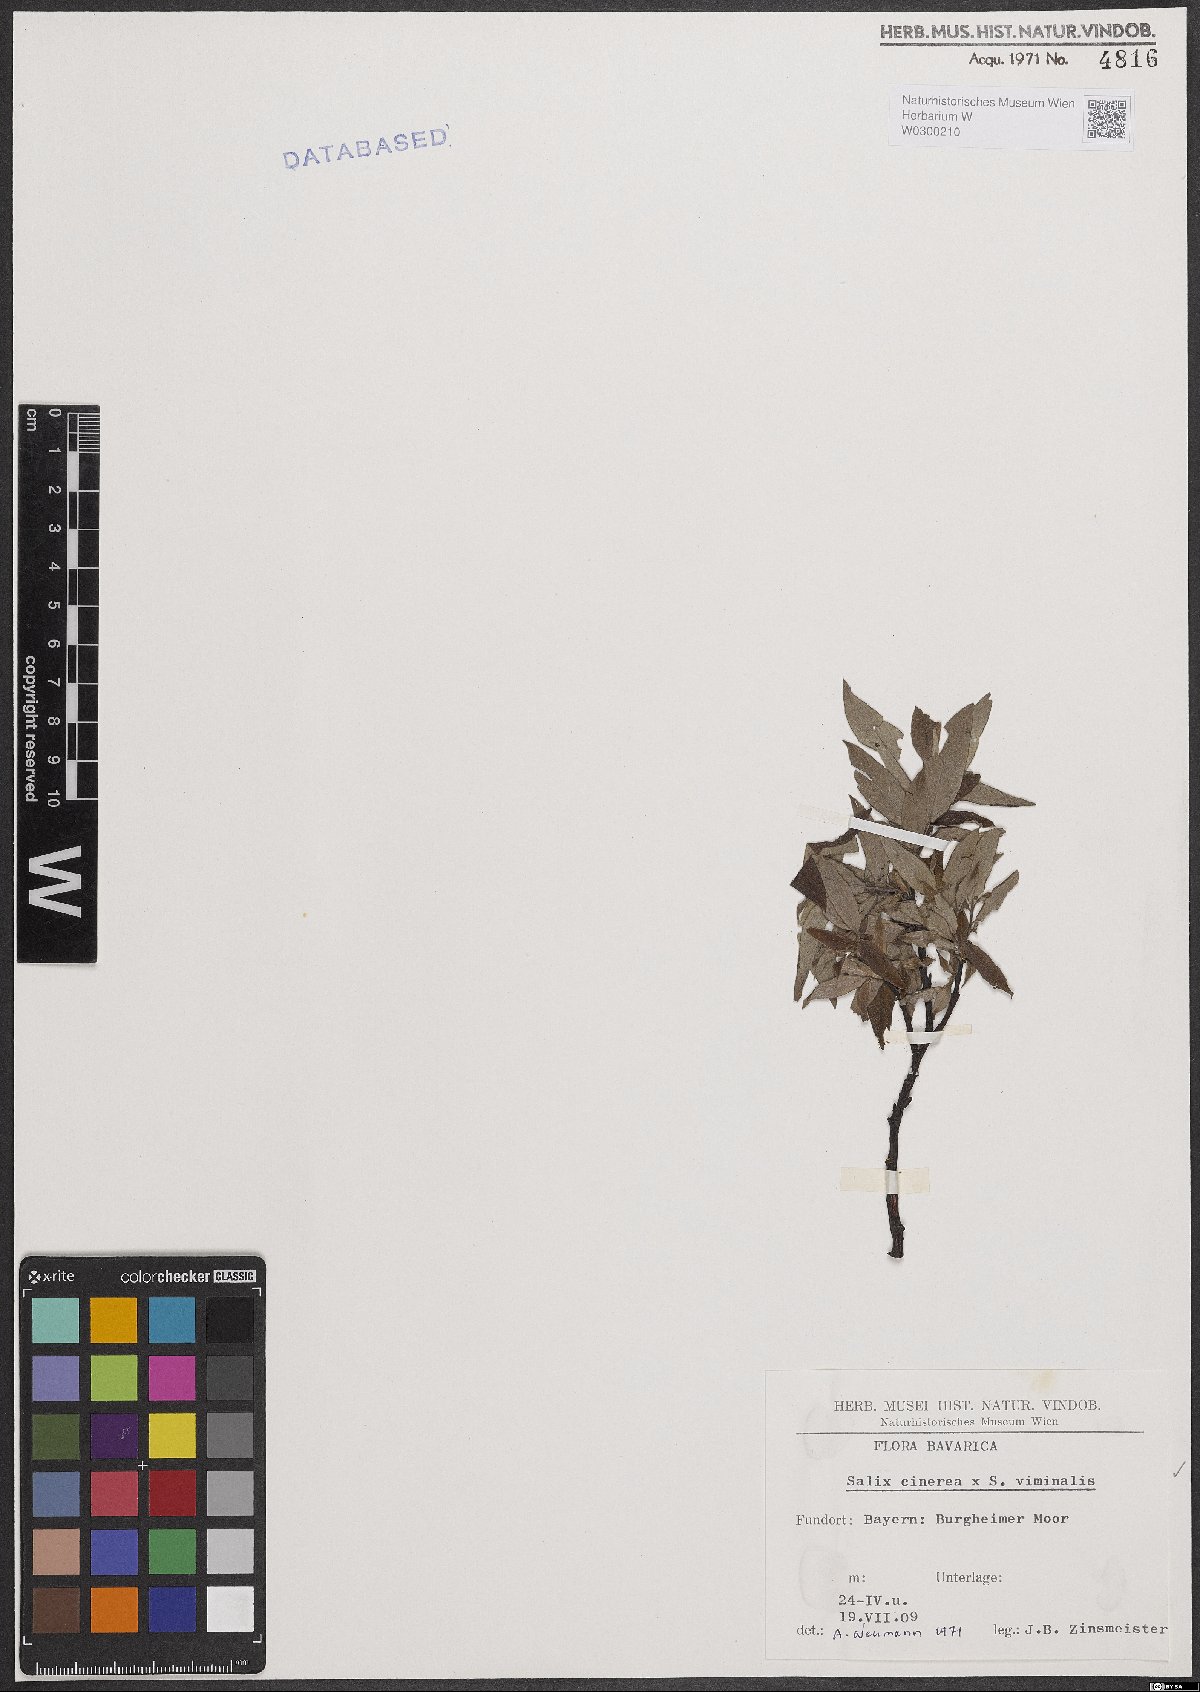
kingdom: Plantae
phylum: Tracheophyta
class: Magnoliopsida
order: Malpighiales
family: Salicaceae
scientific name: Salicaceae
